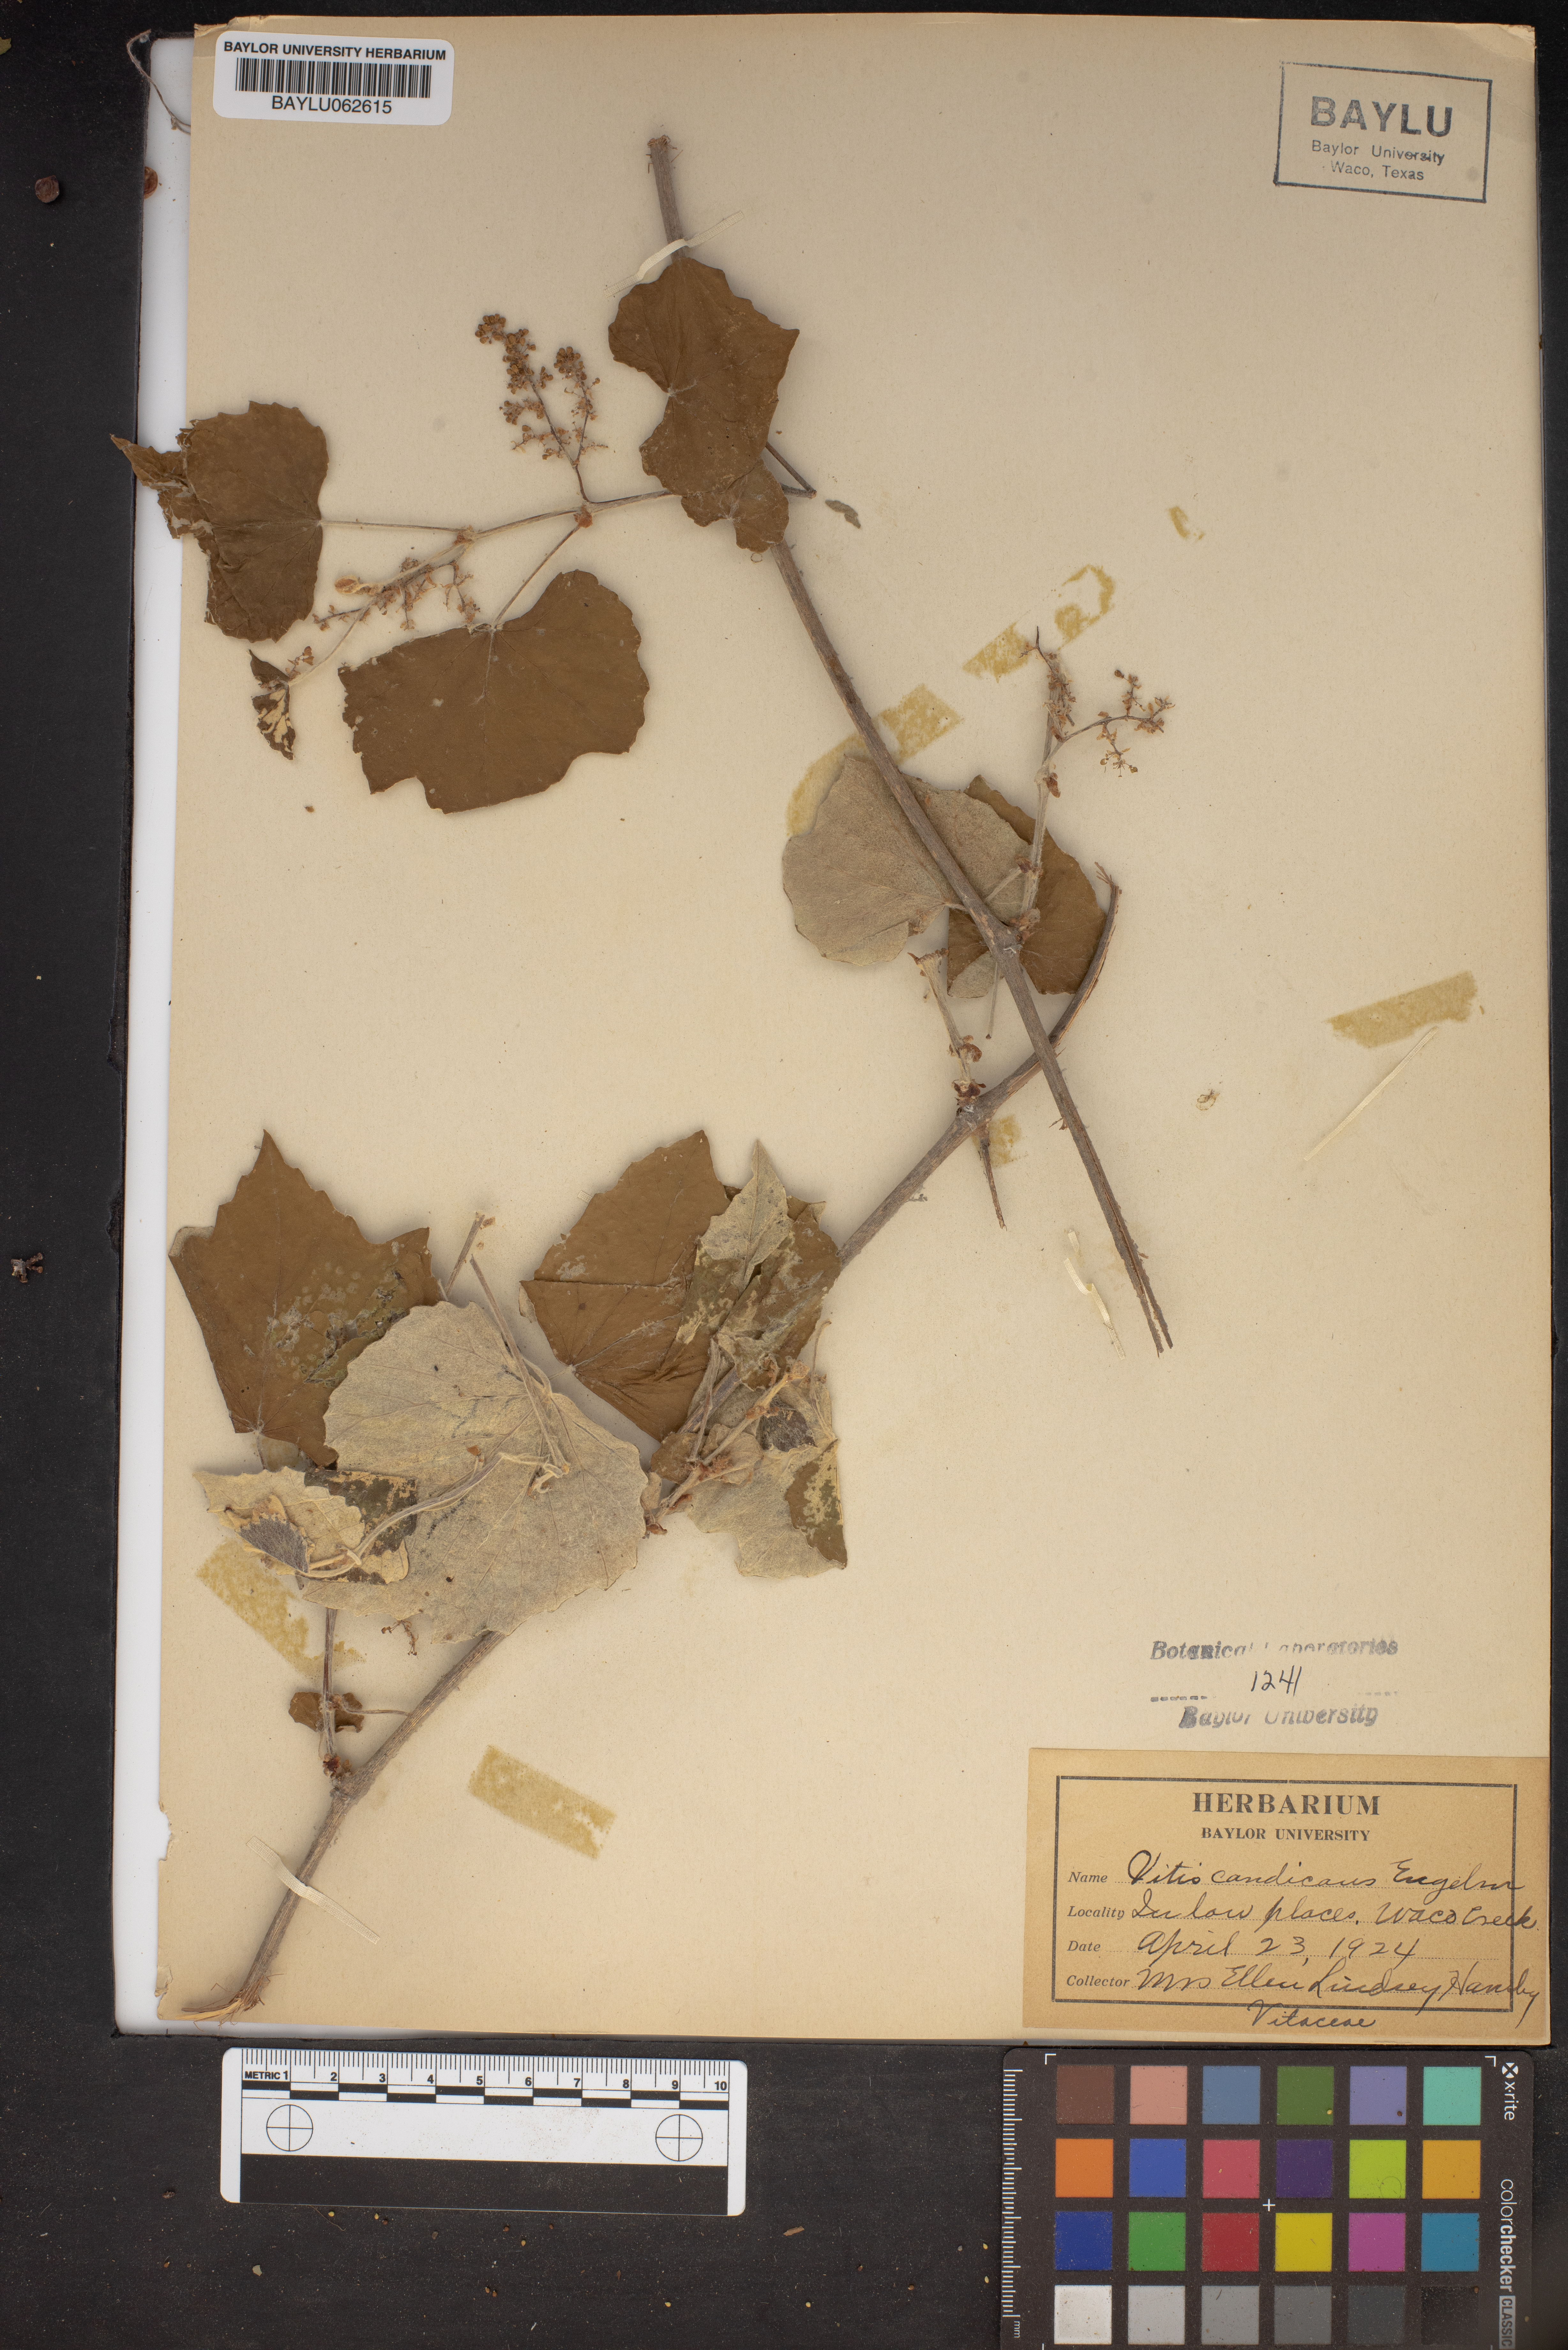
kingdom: Plantae
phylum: Tracheophyta
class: Magnoliopsida
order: Vitales
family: Vitaceae
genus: Vitis
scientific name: Vitis mustangensis
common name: Mustang grape
